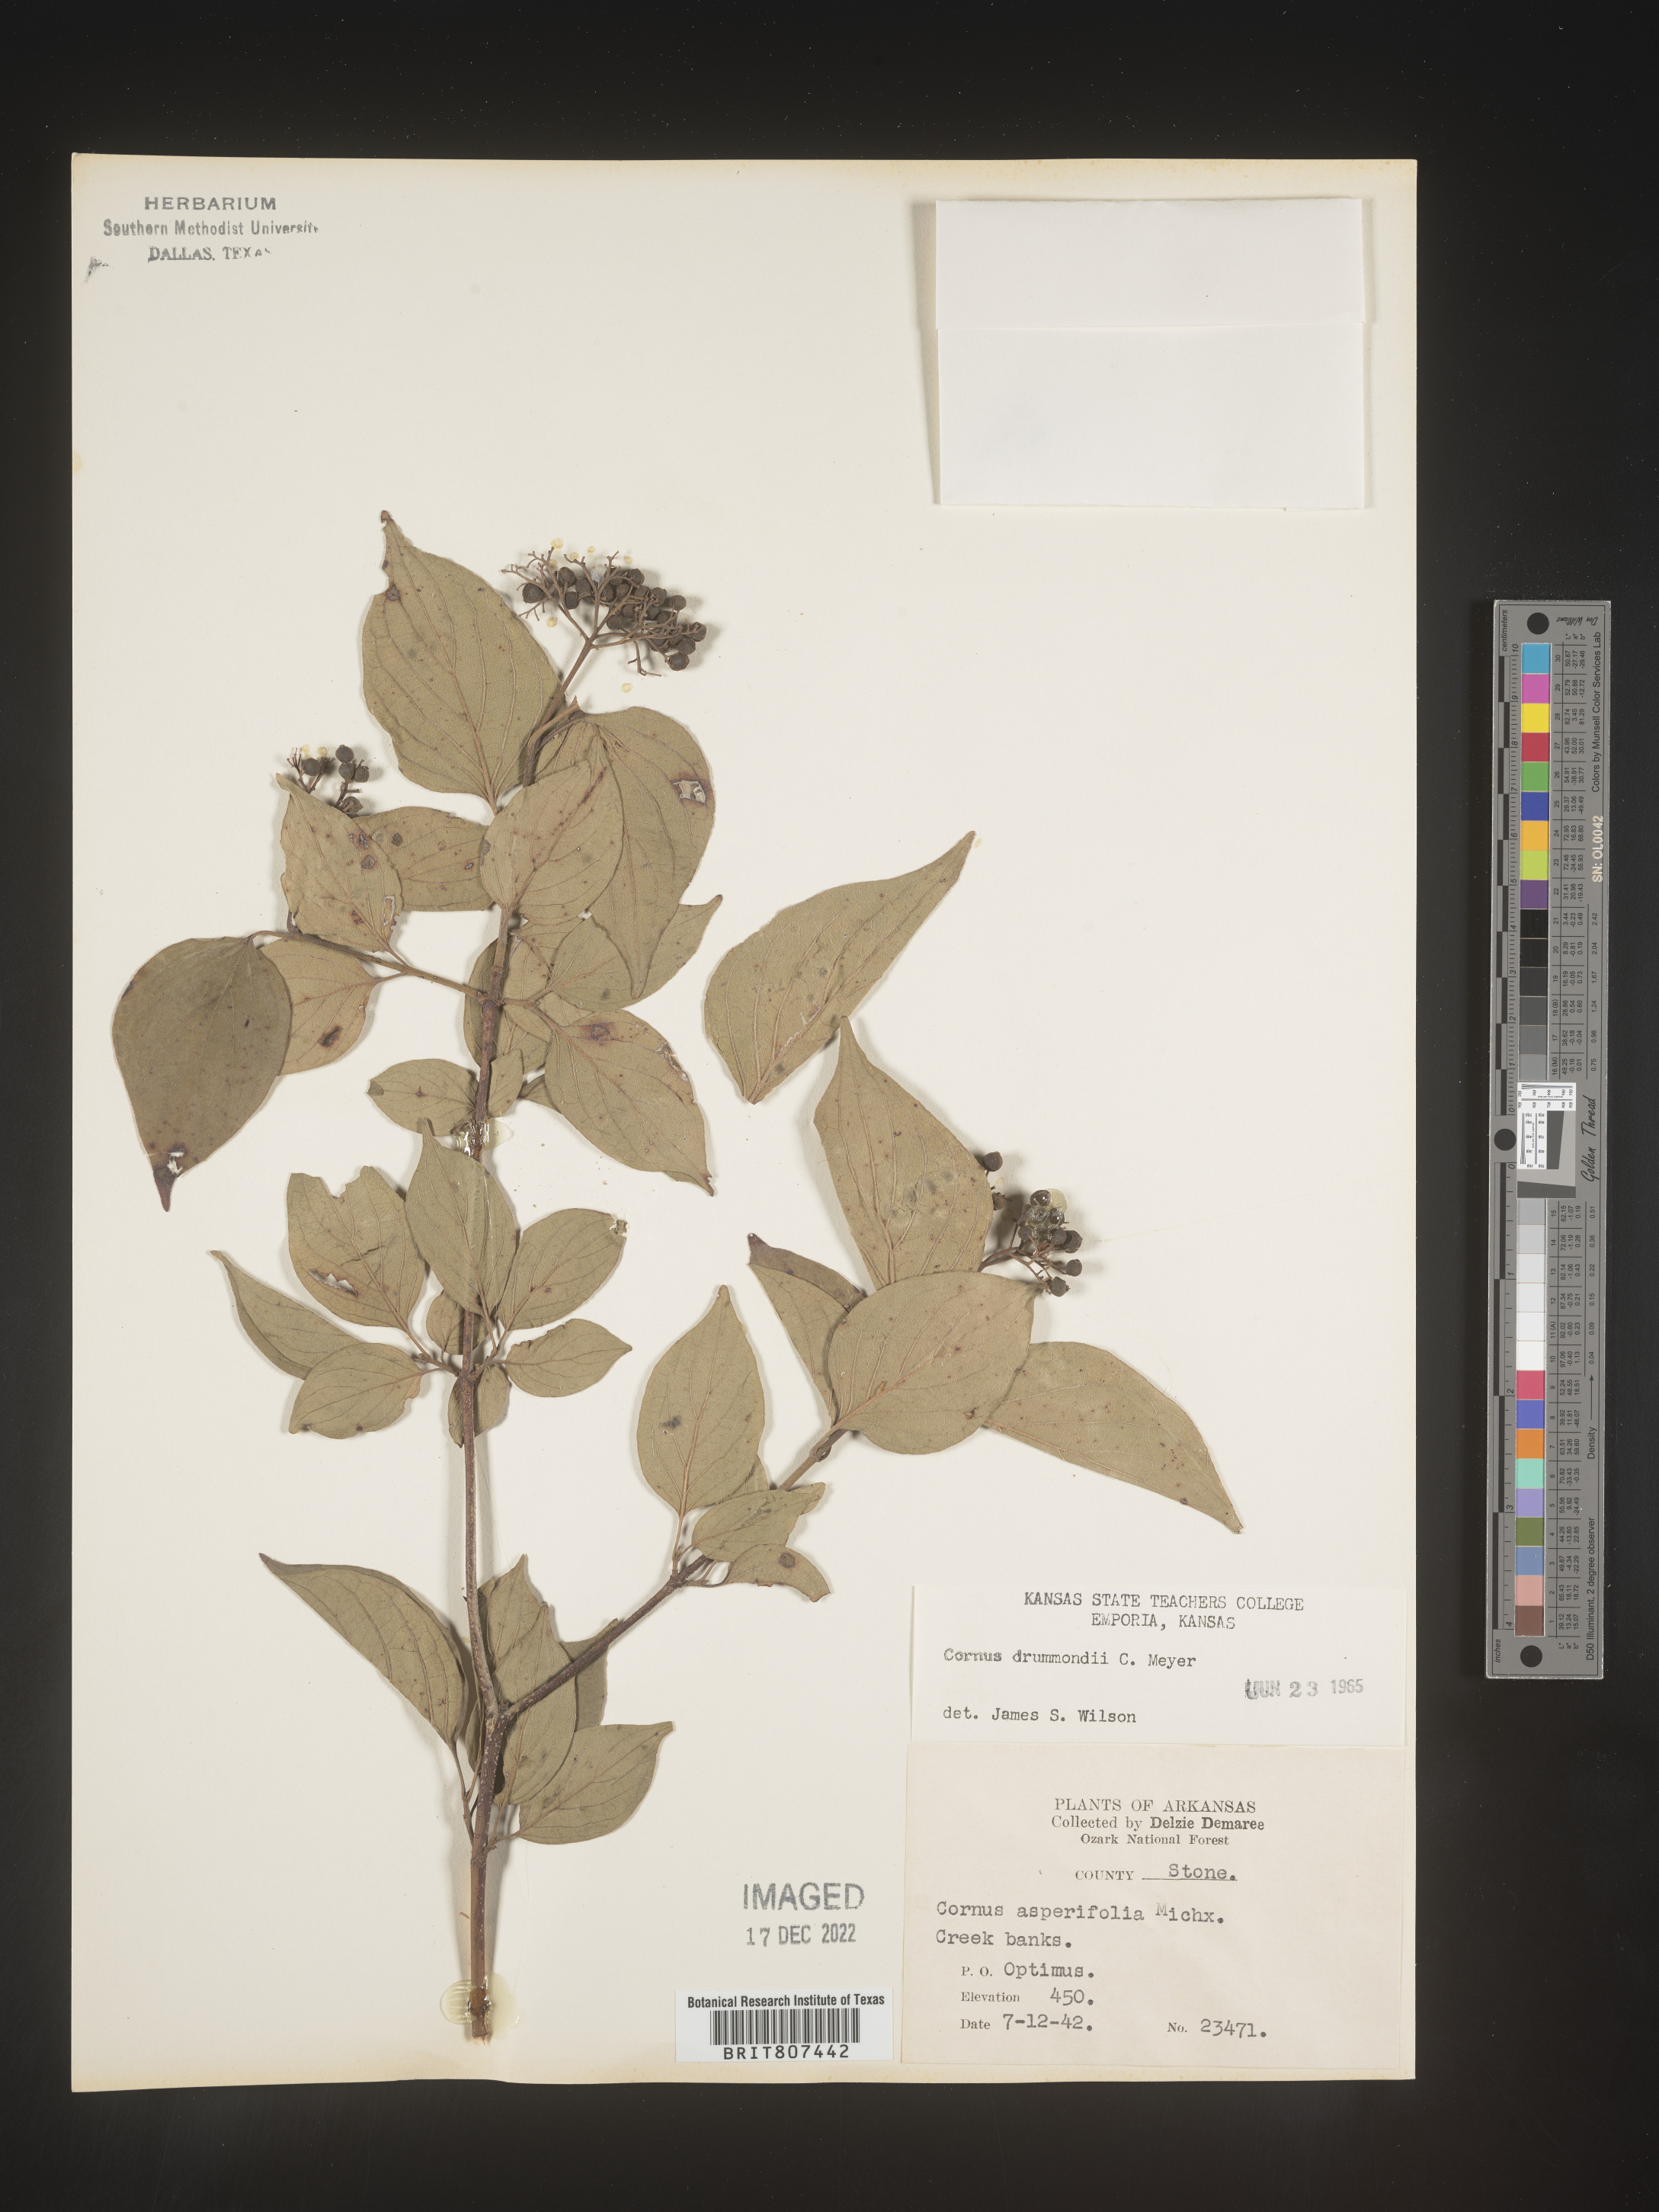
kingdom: Plantae
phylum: Tracheophyta
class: Magnoliopsida
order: Cornales
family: Cornaceae
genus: Cornus
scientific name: Cornus drummondii
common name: Rough-leaf dogwood
